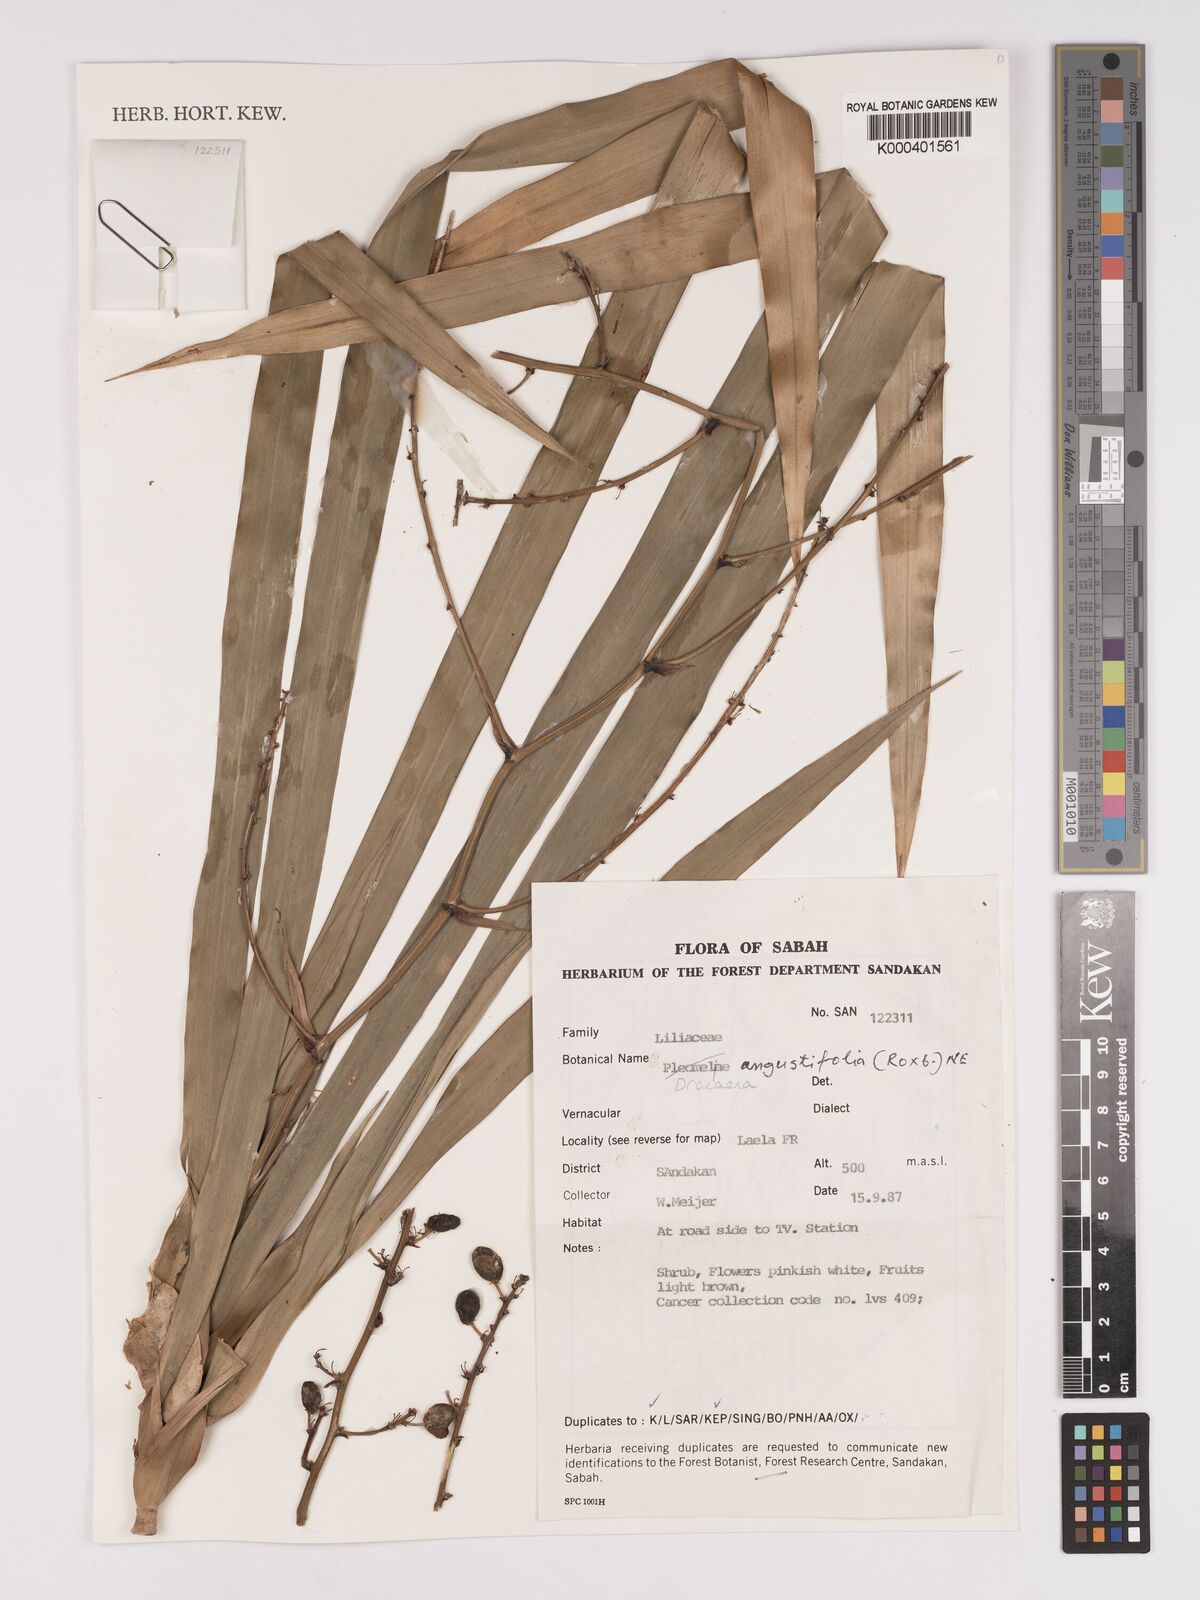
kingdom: Plantae
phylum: Tracheophyta
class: Liliopsida
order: Asparagales
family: Asparagaceae
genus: Dracaena
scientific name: Dracaena angustifolia
